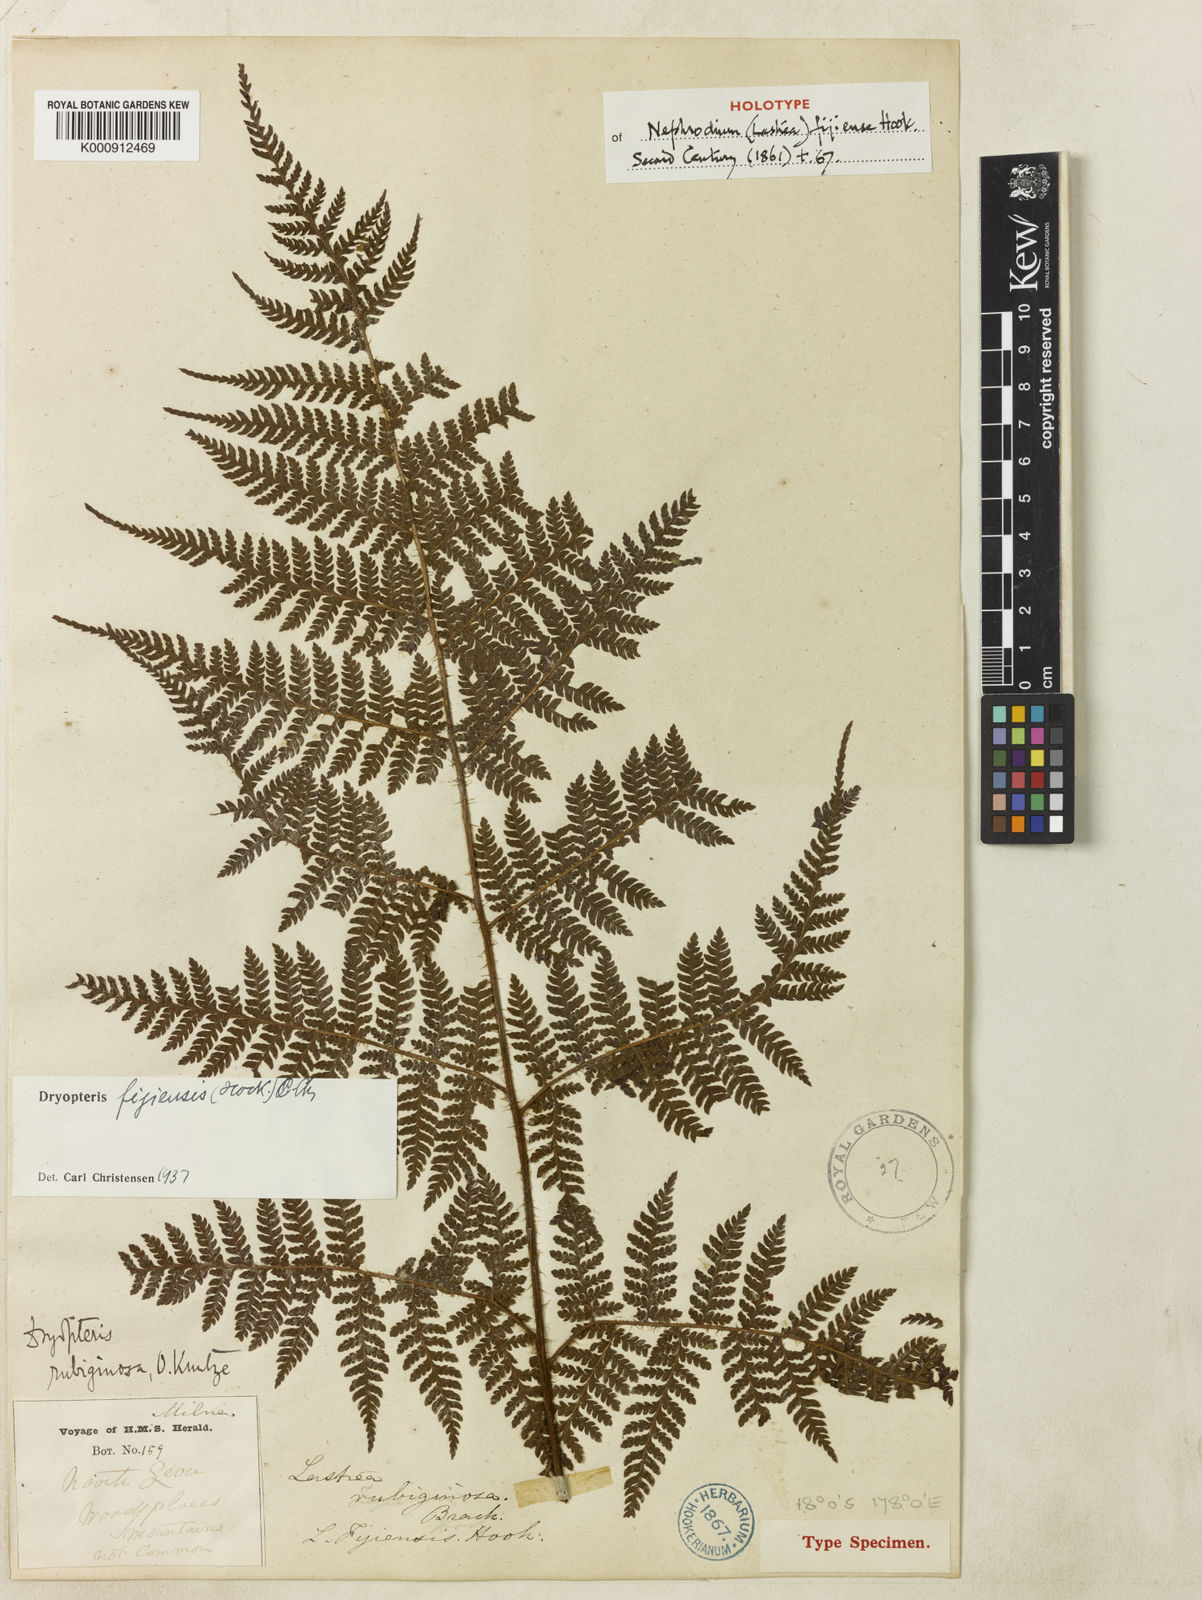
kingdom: Plantae
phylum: Tracheophyta
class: Polypodiopsida
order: Polypodiales
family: Dryopteridaceae
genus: Ctenitis
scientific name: Ctenitis fijiensis
